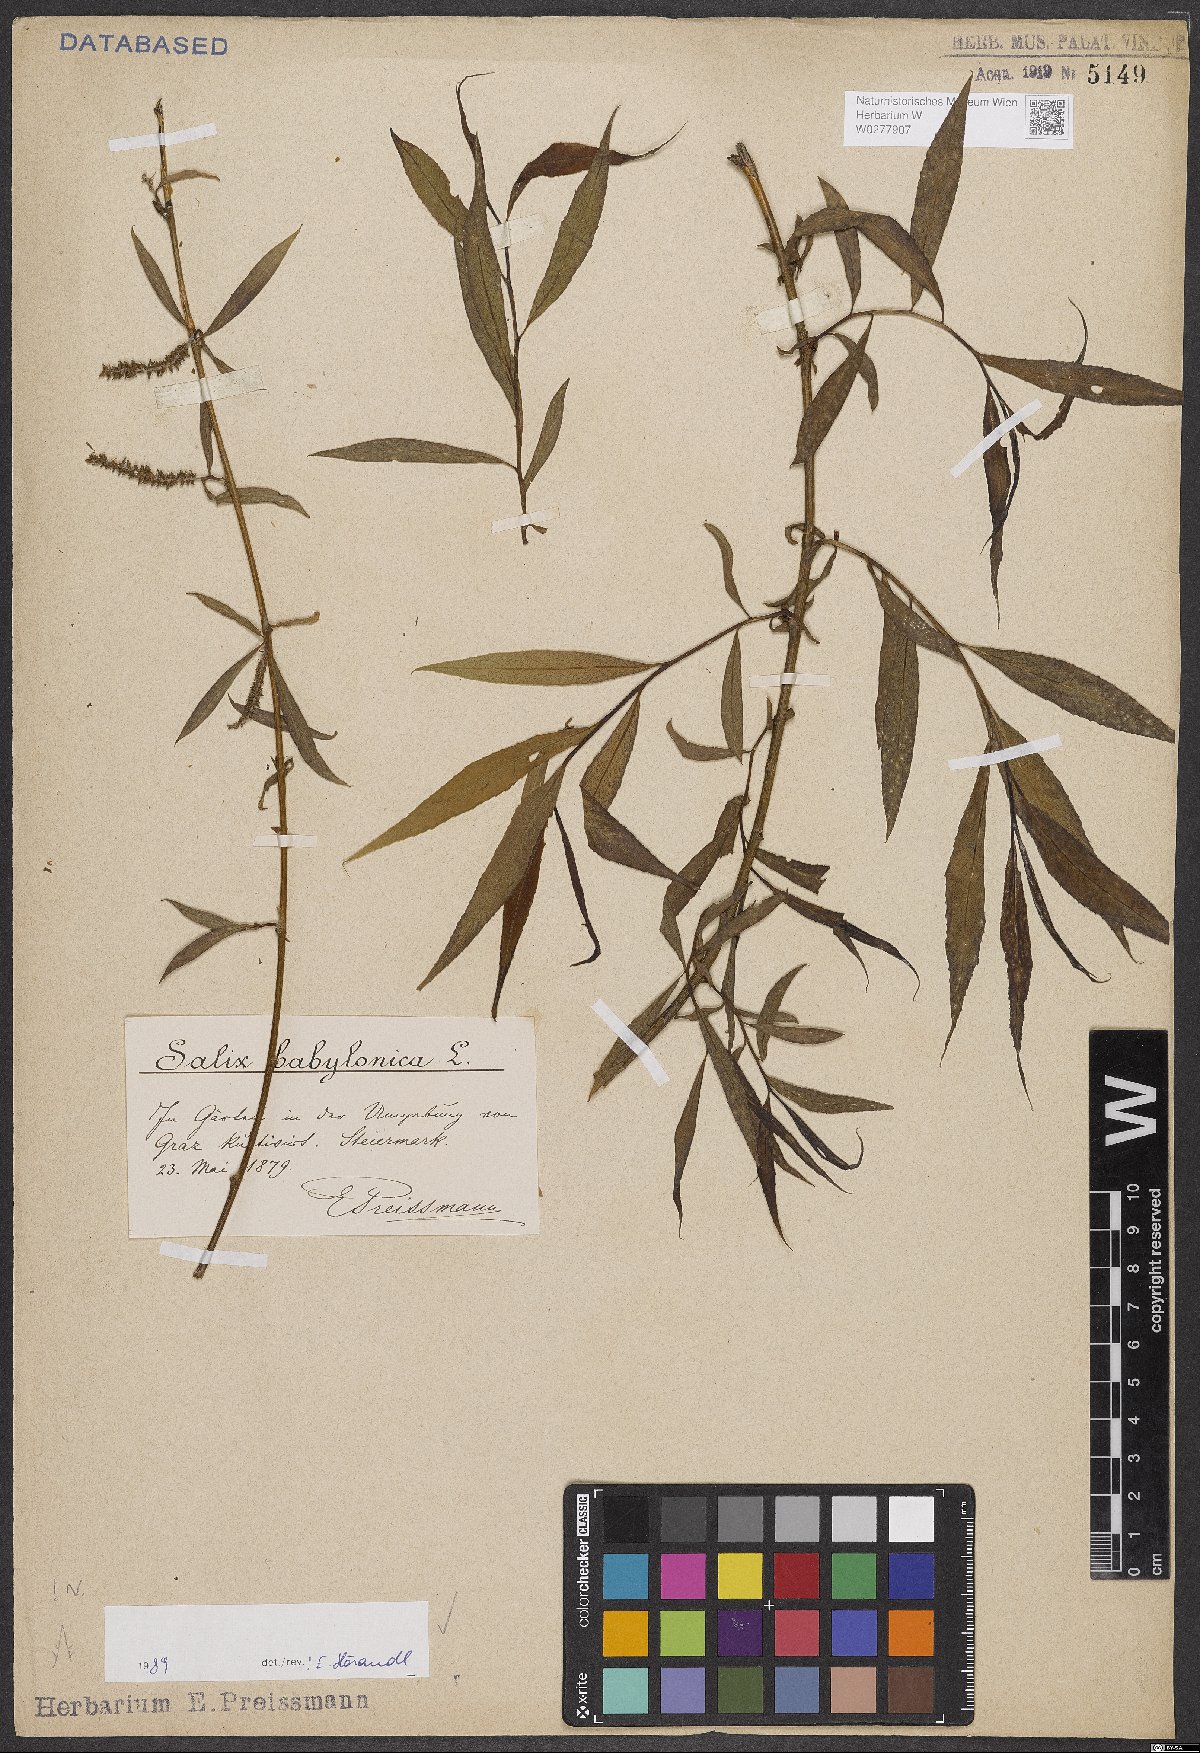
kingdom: Plantae
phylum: Tracheophyta
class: Magnoliopsida
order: Malpighiales
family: Salicaceae
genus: Salix
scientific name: Salix babylonica
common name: Weeping willow
